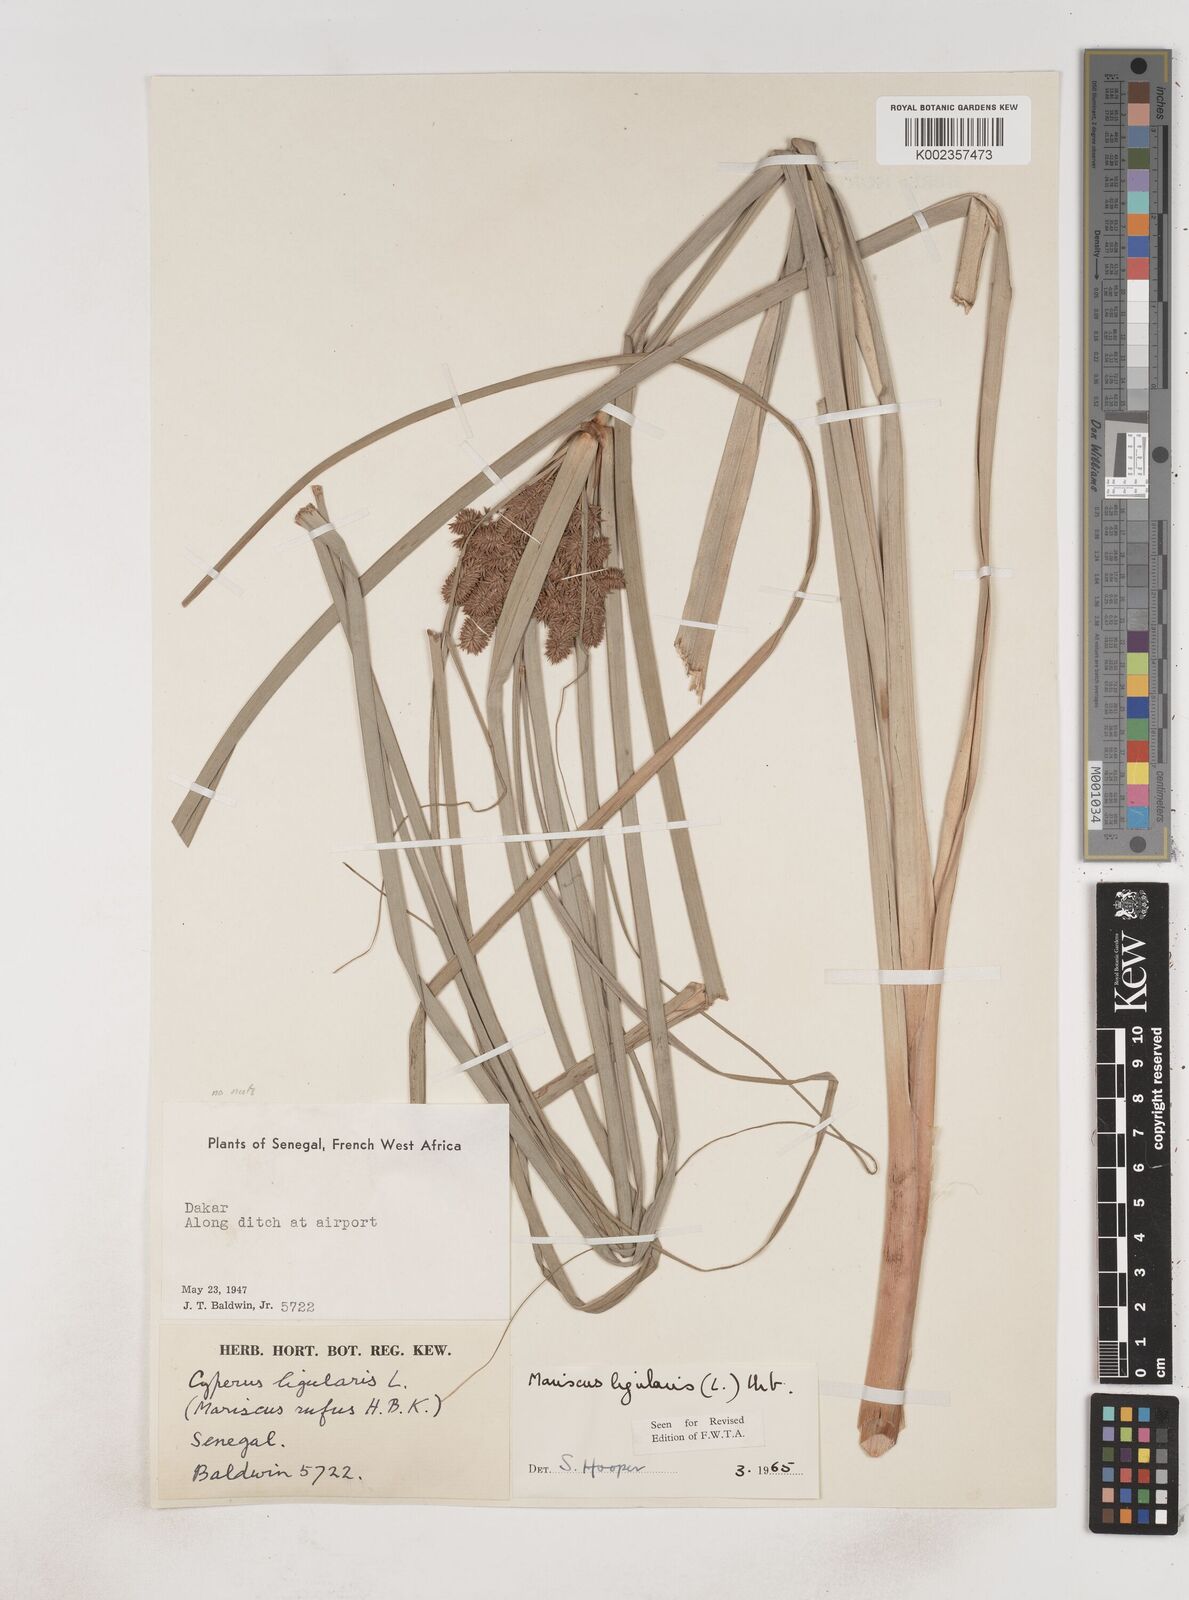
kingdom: Plantae
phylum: Tracheophyta
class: Liliopsida
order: Poales
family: Cyperaceae
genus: Cyperus
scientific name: Cyperus ligularis
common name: Swamp flat sedge
